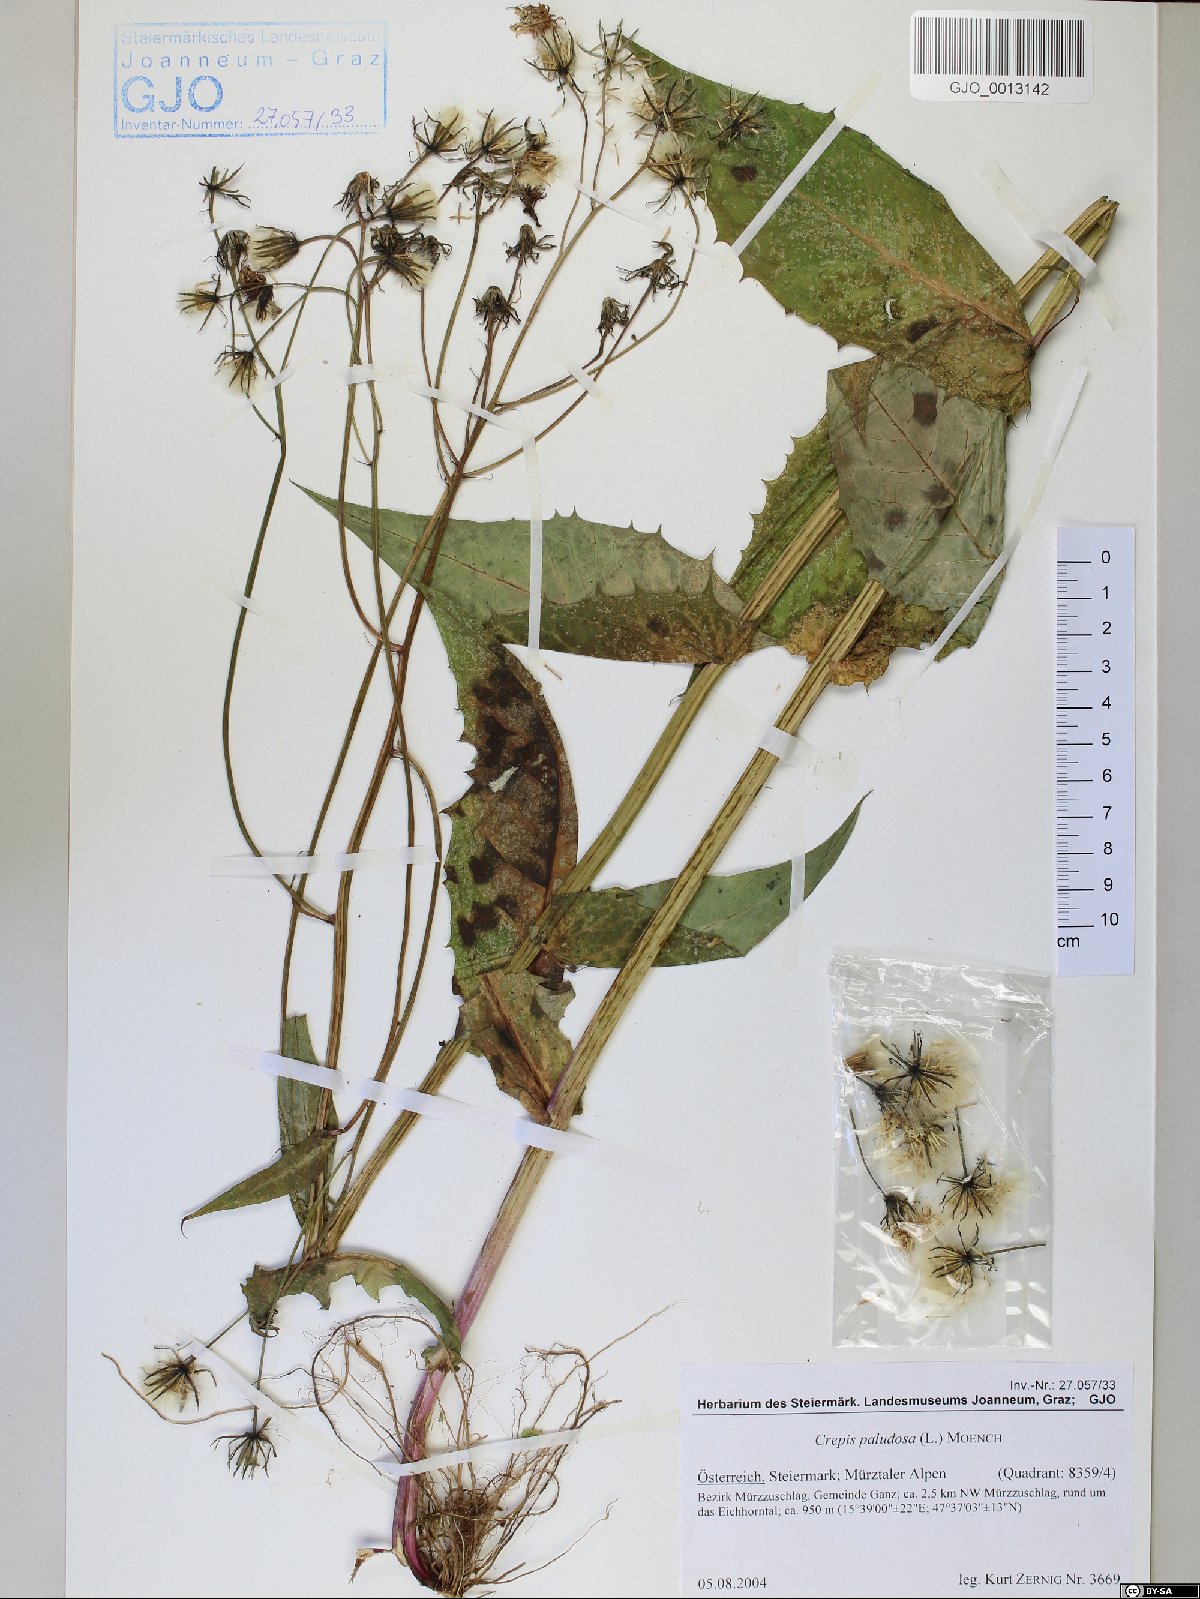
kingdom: Plantae
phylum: Tracheophyta
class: Magnoliopsida
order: Asterales
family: Asteraceae
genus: Crepis
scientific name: Crepis paludosa
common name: Marsh hawk's-beard
